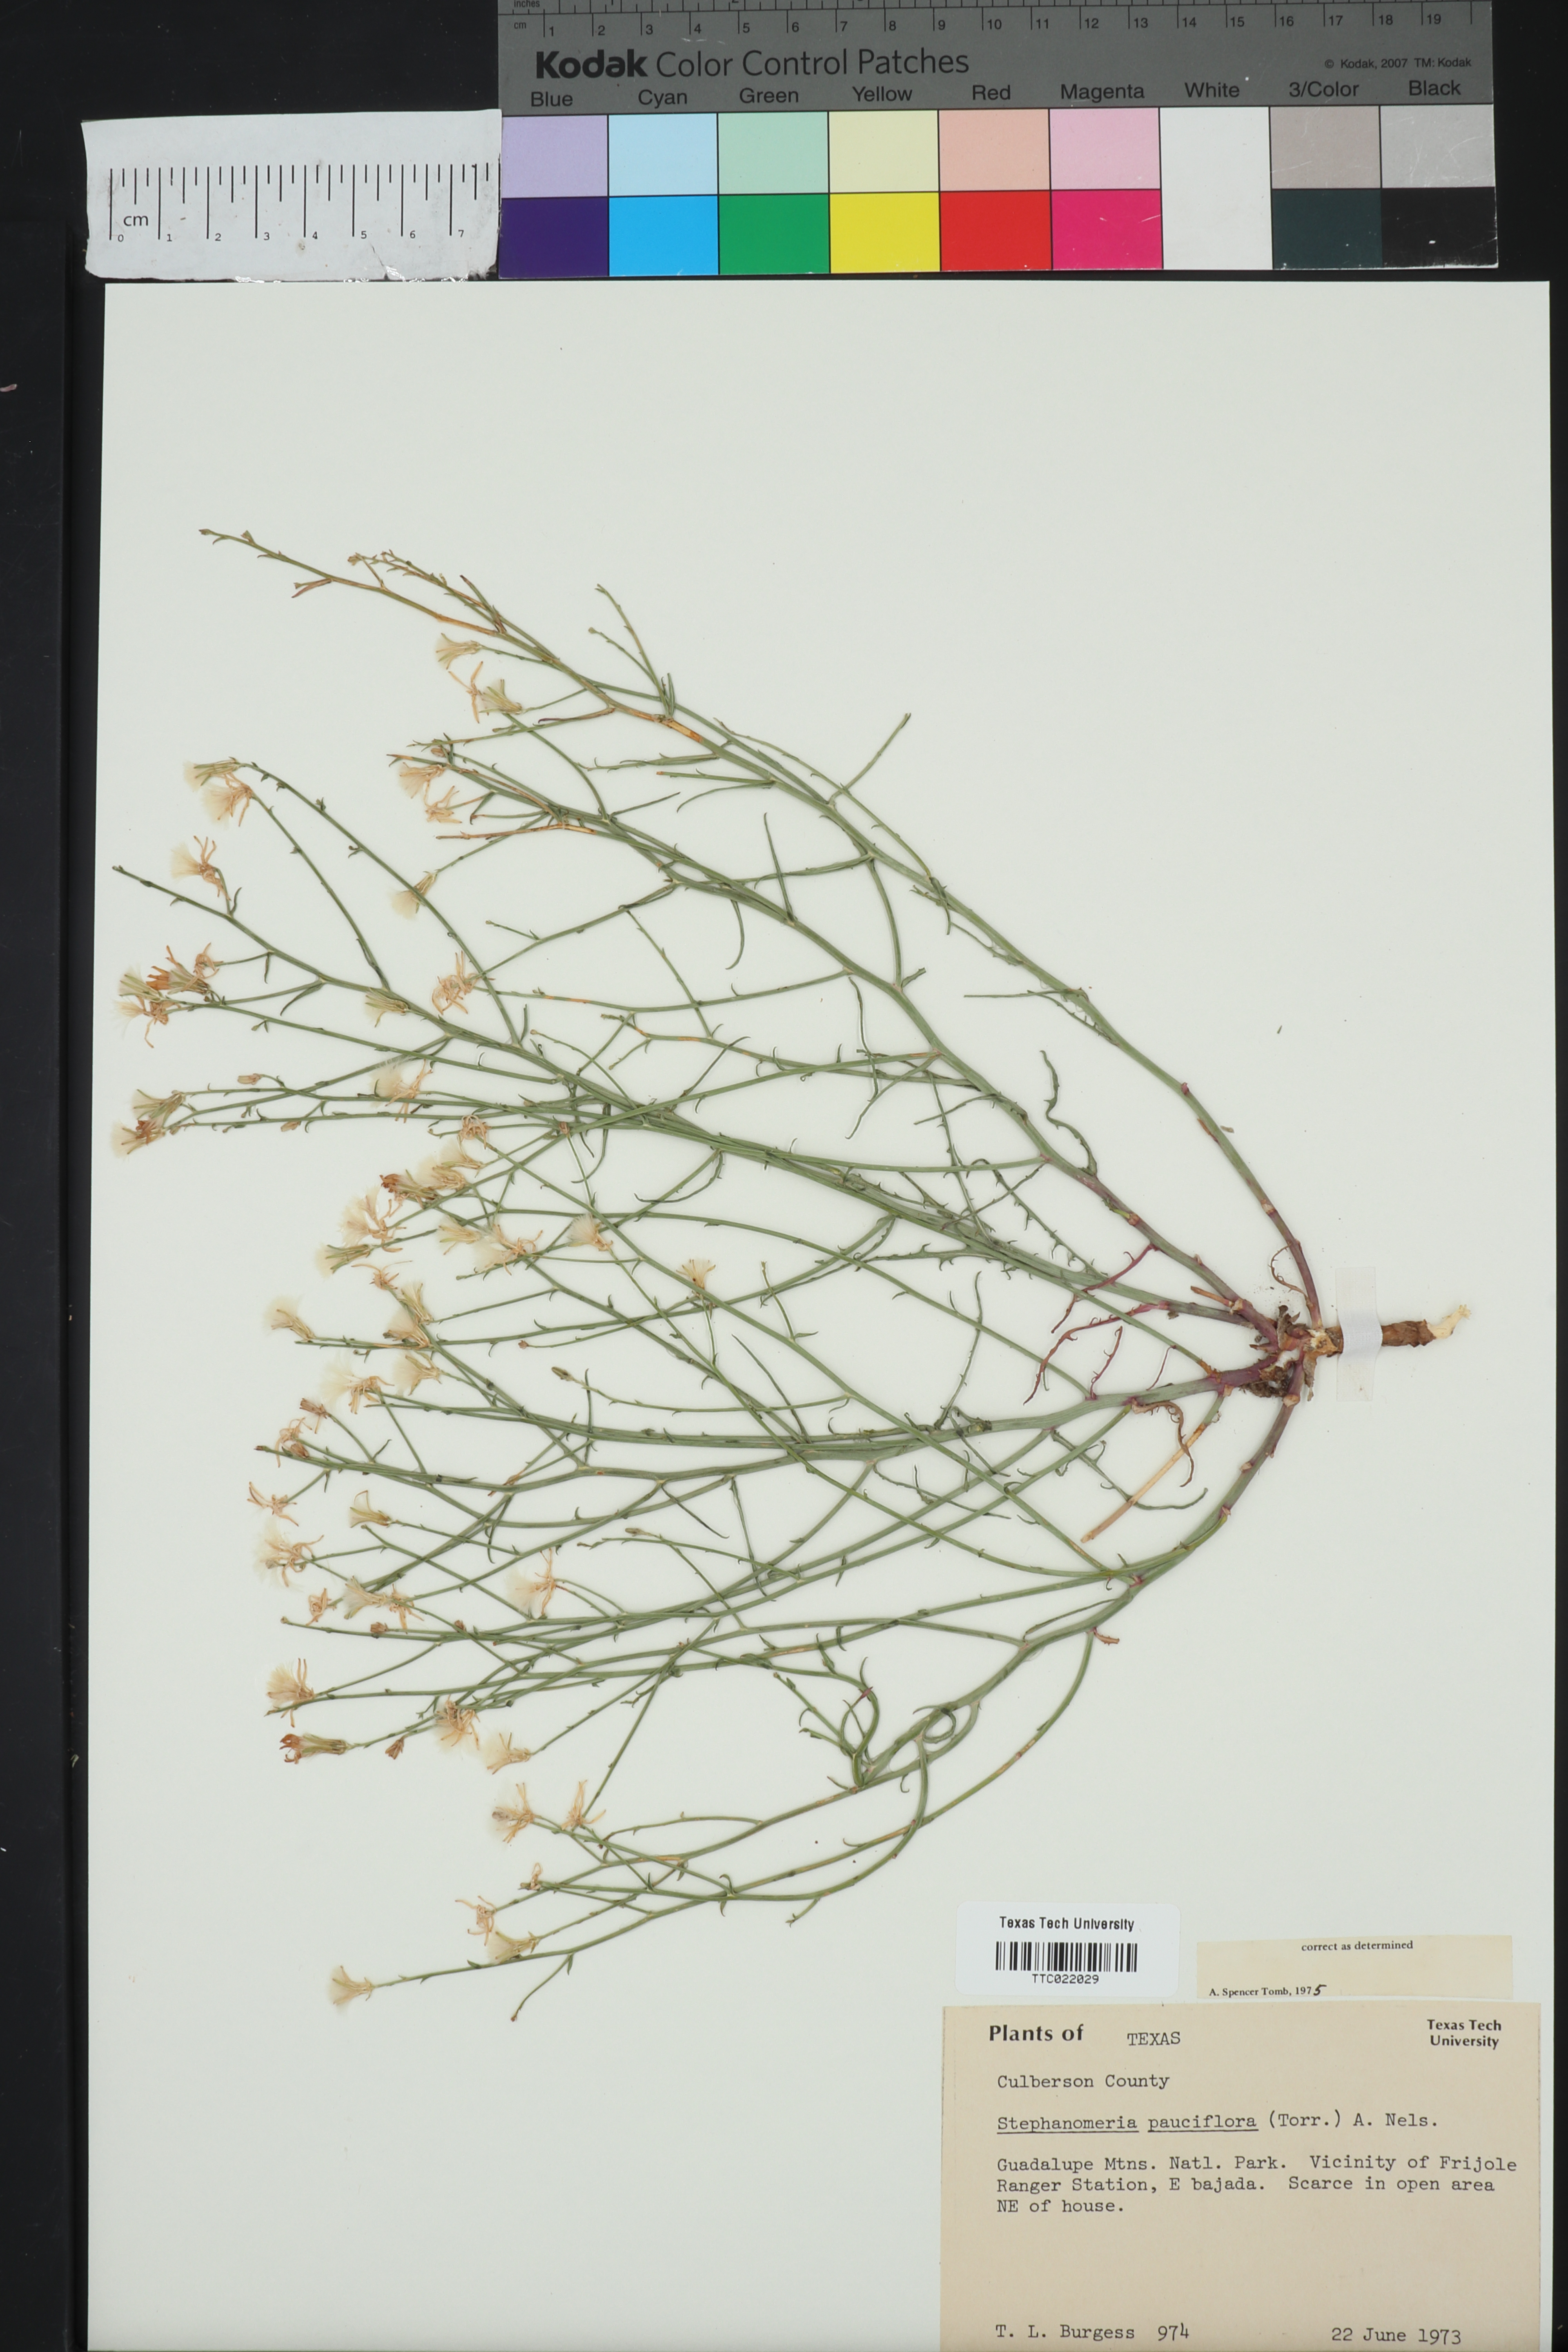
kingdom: Plantae
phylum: Tracheophyta
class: Magnoliopsida
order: Asterales
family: Asteraceae
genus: Stephanomeria
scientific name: Stephanomeria pauciflora
